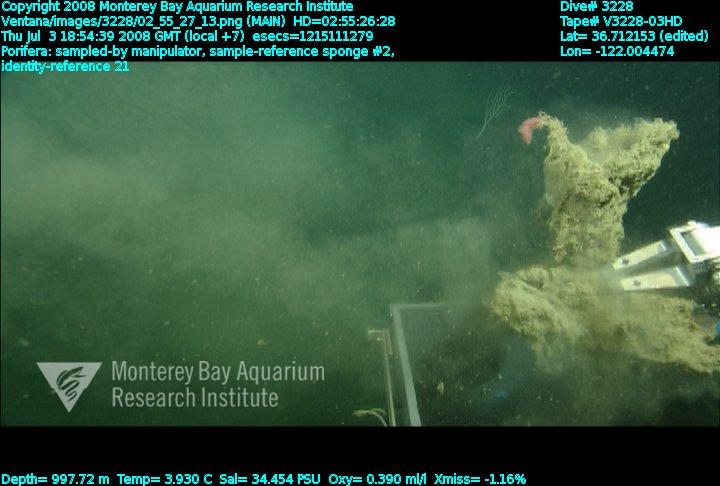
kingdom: Animalia
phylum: Porifera
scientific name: Porifera
